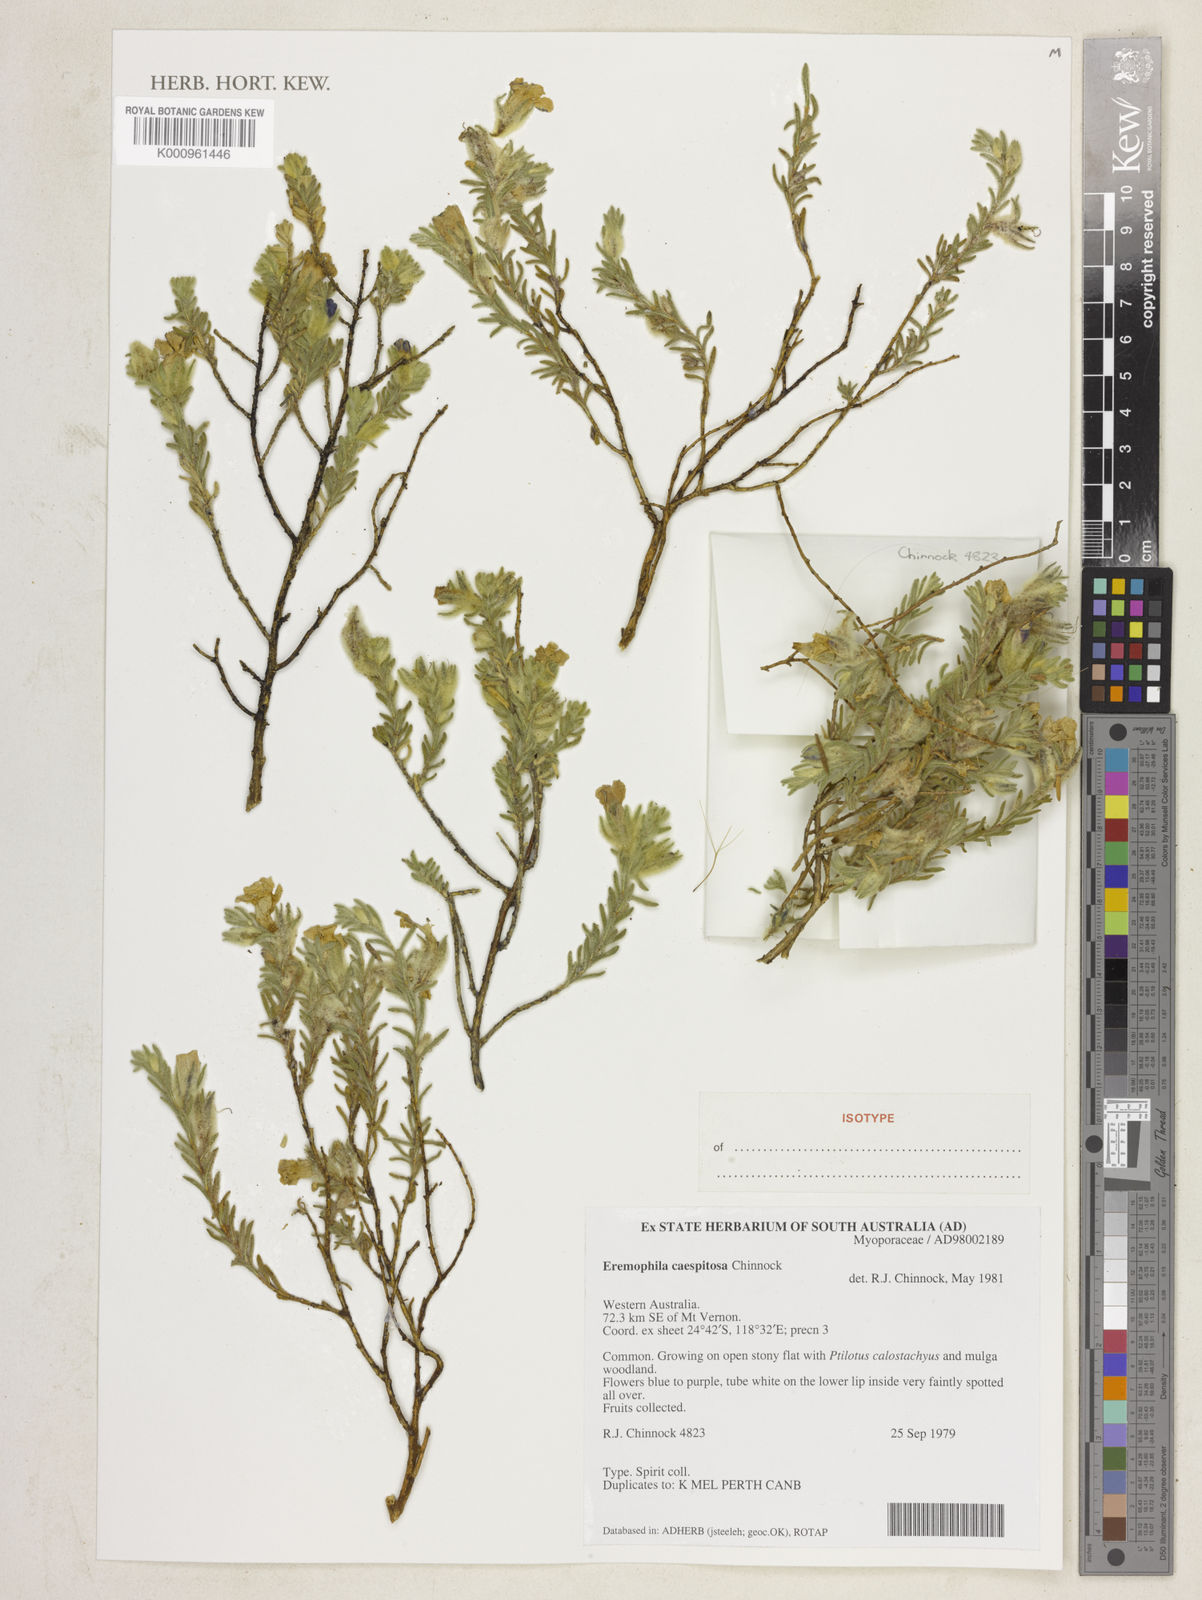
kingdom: Plantae
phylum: Tracheophyta
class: Magnoliopsida
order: Lamiales
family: Scrophulariaceae
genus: Eremophila
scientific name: Eremophila caespitosa
